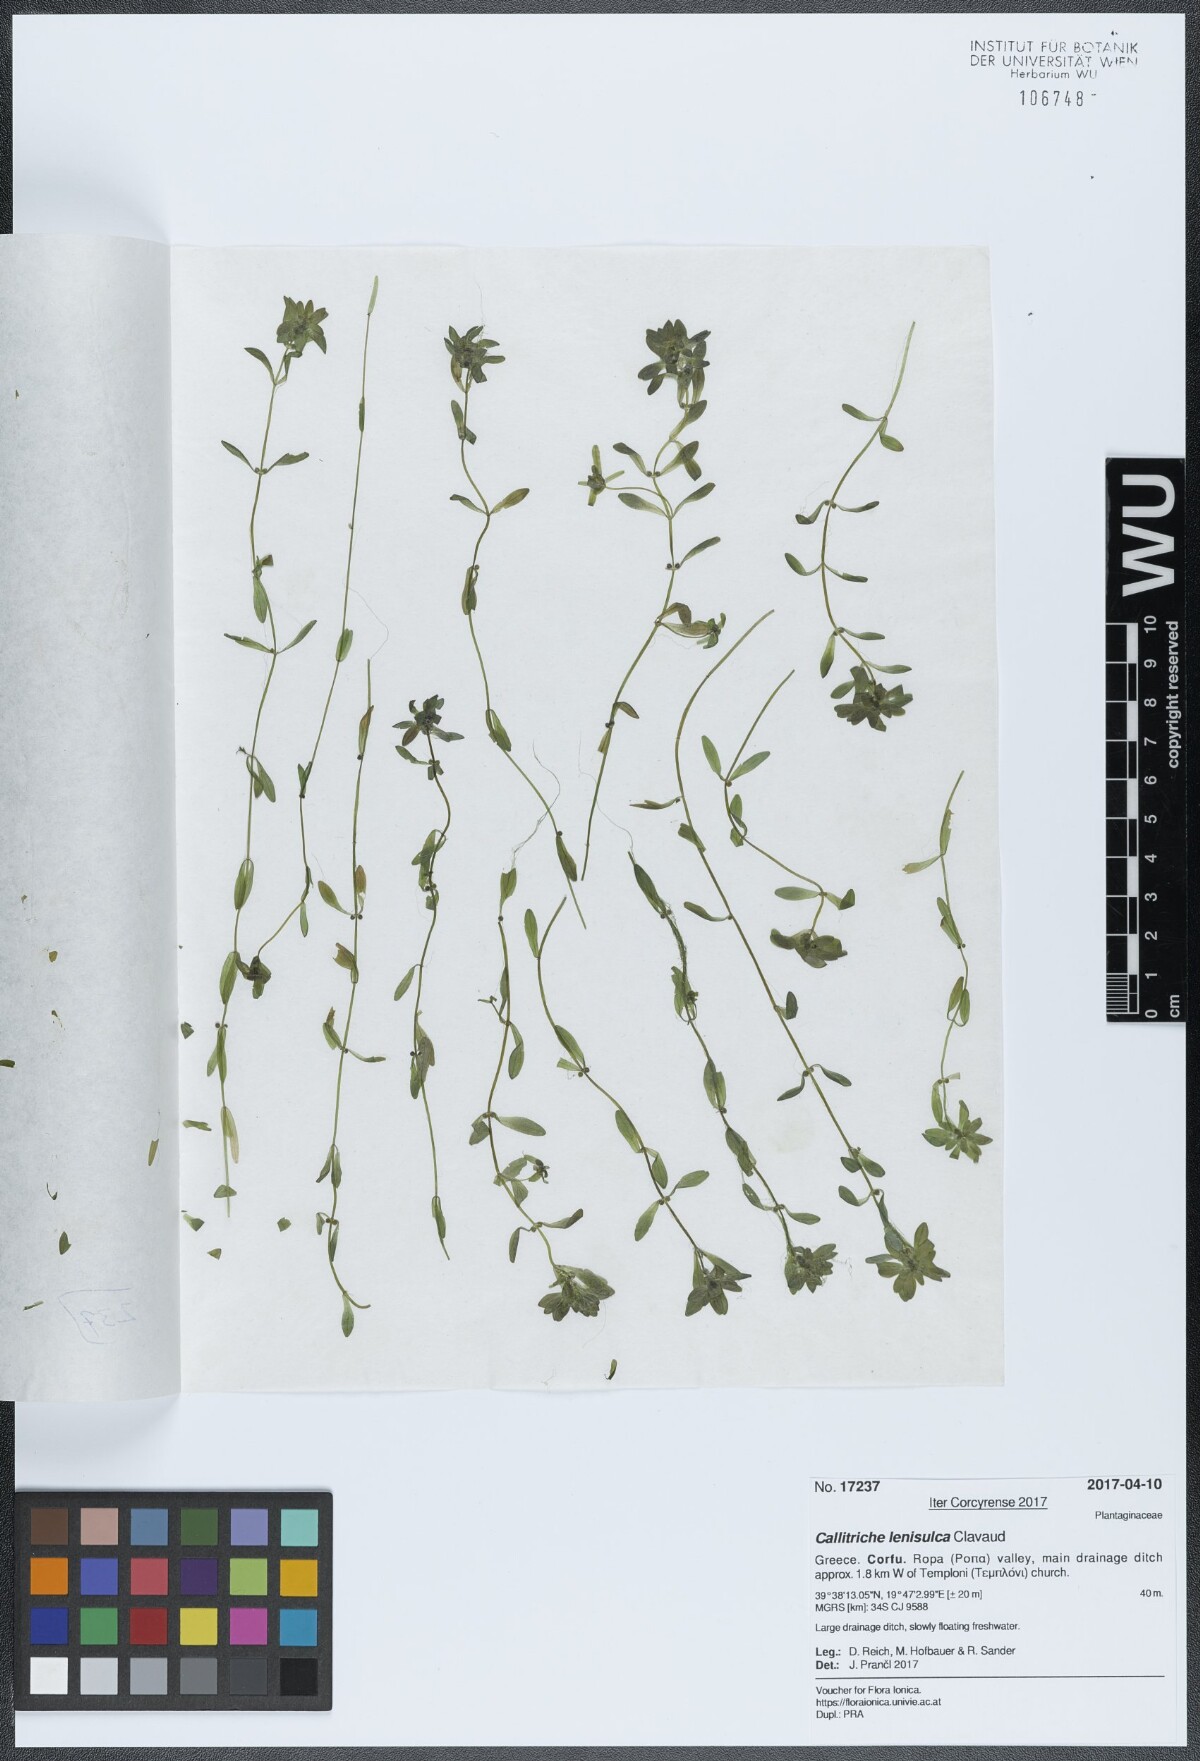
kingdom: Plantae
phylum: Tracheophyta
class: Magnoliopsida
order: Lamiales
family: Plantaginaceae
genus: Callitriche
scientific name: Callitriche lenisulca
